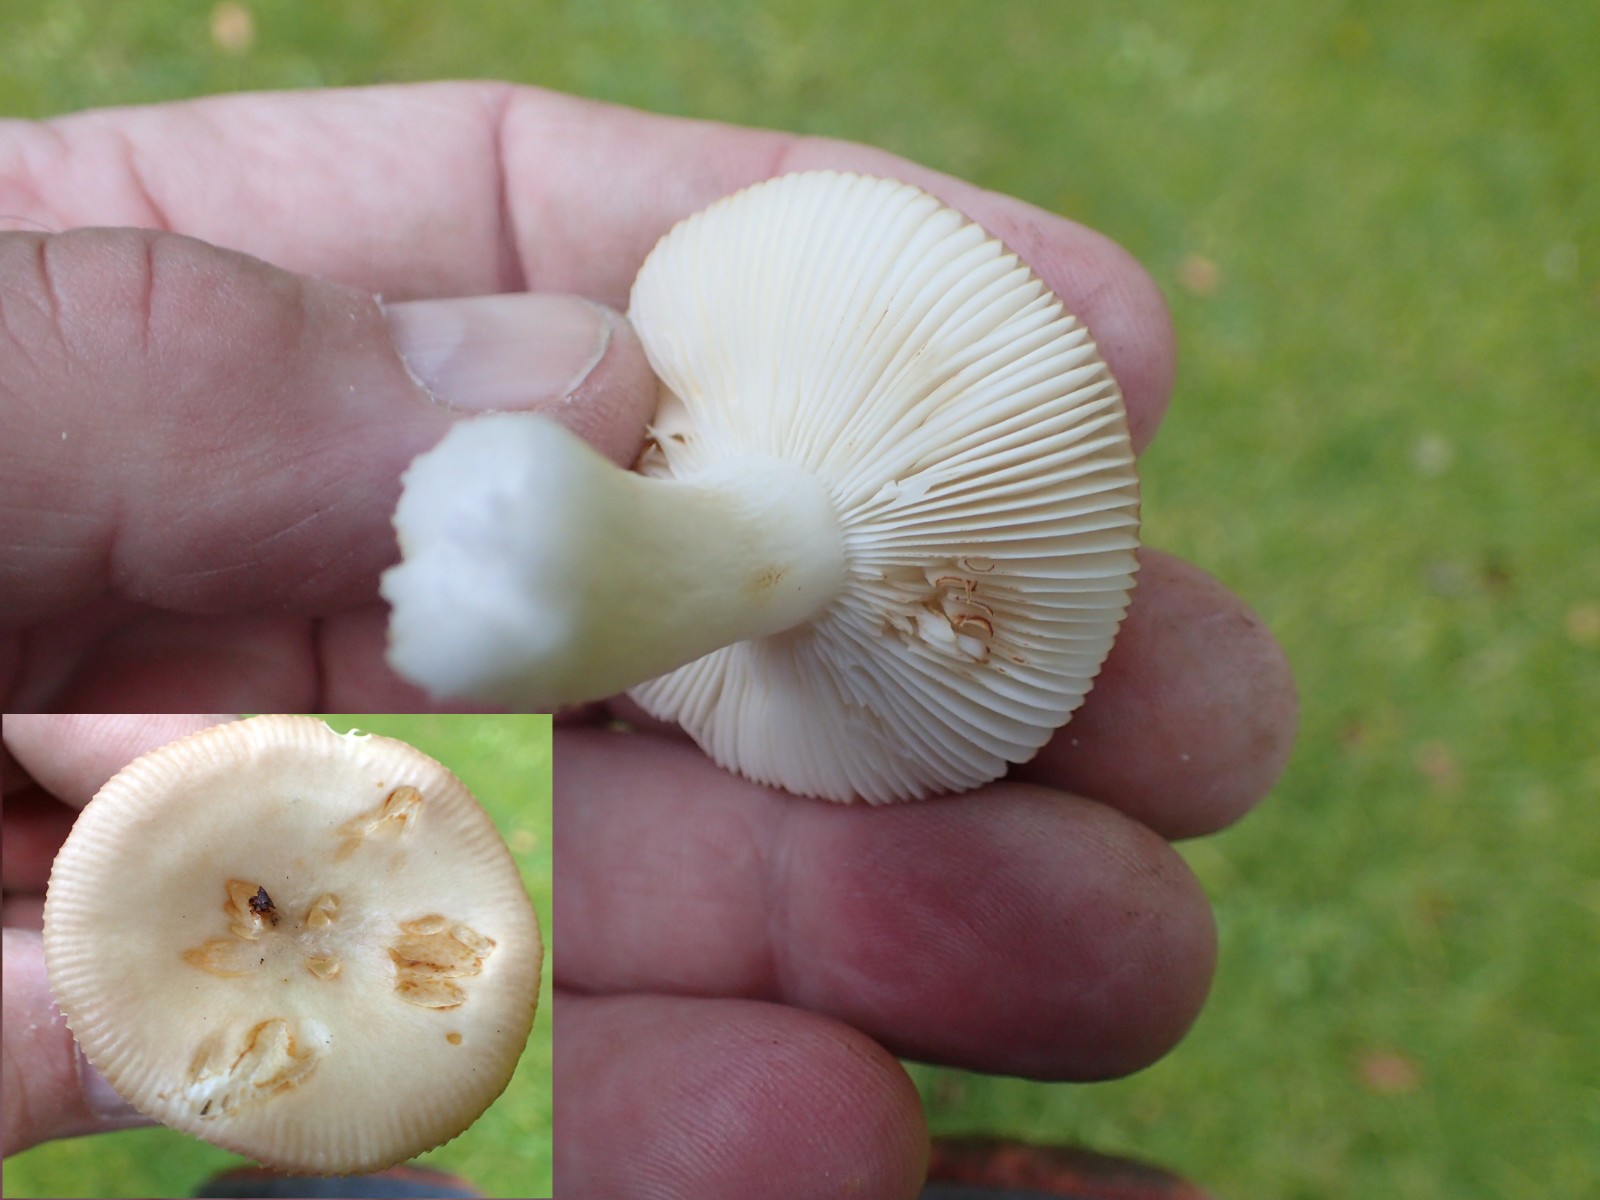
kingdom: Fungi
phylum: Basidiomycota
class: Agaricomycetes
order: Russulales
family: Russulaceae
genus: Russula
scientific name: Russula
